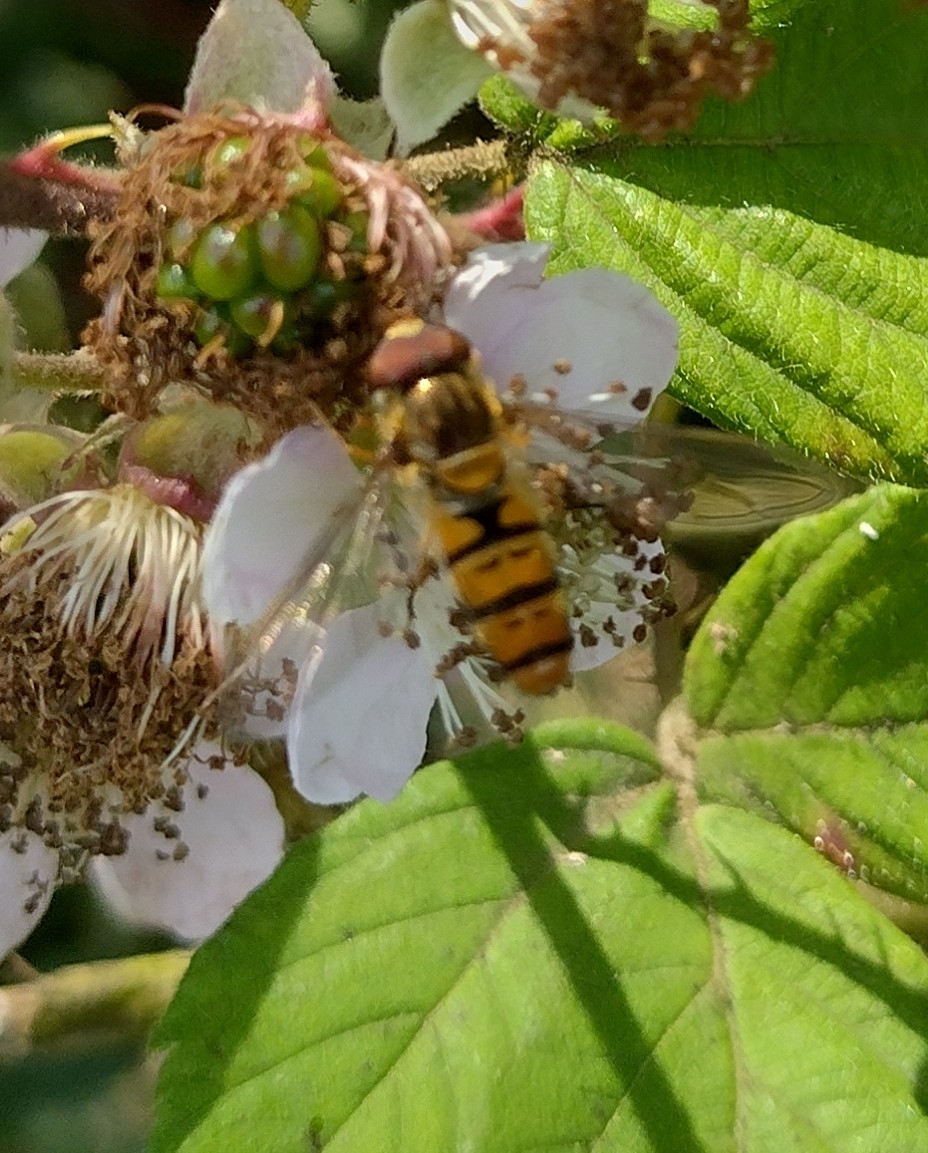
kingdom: Animalia
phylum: Arthropoda
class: Insecta
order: Diptera
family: Syrphidae
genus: Episyrphus
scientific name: Episyrphus balteatus
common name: Dobbeltbåndet svirreflue
